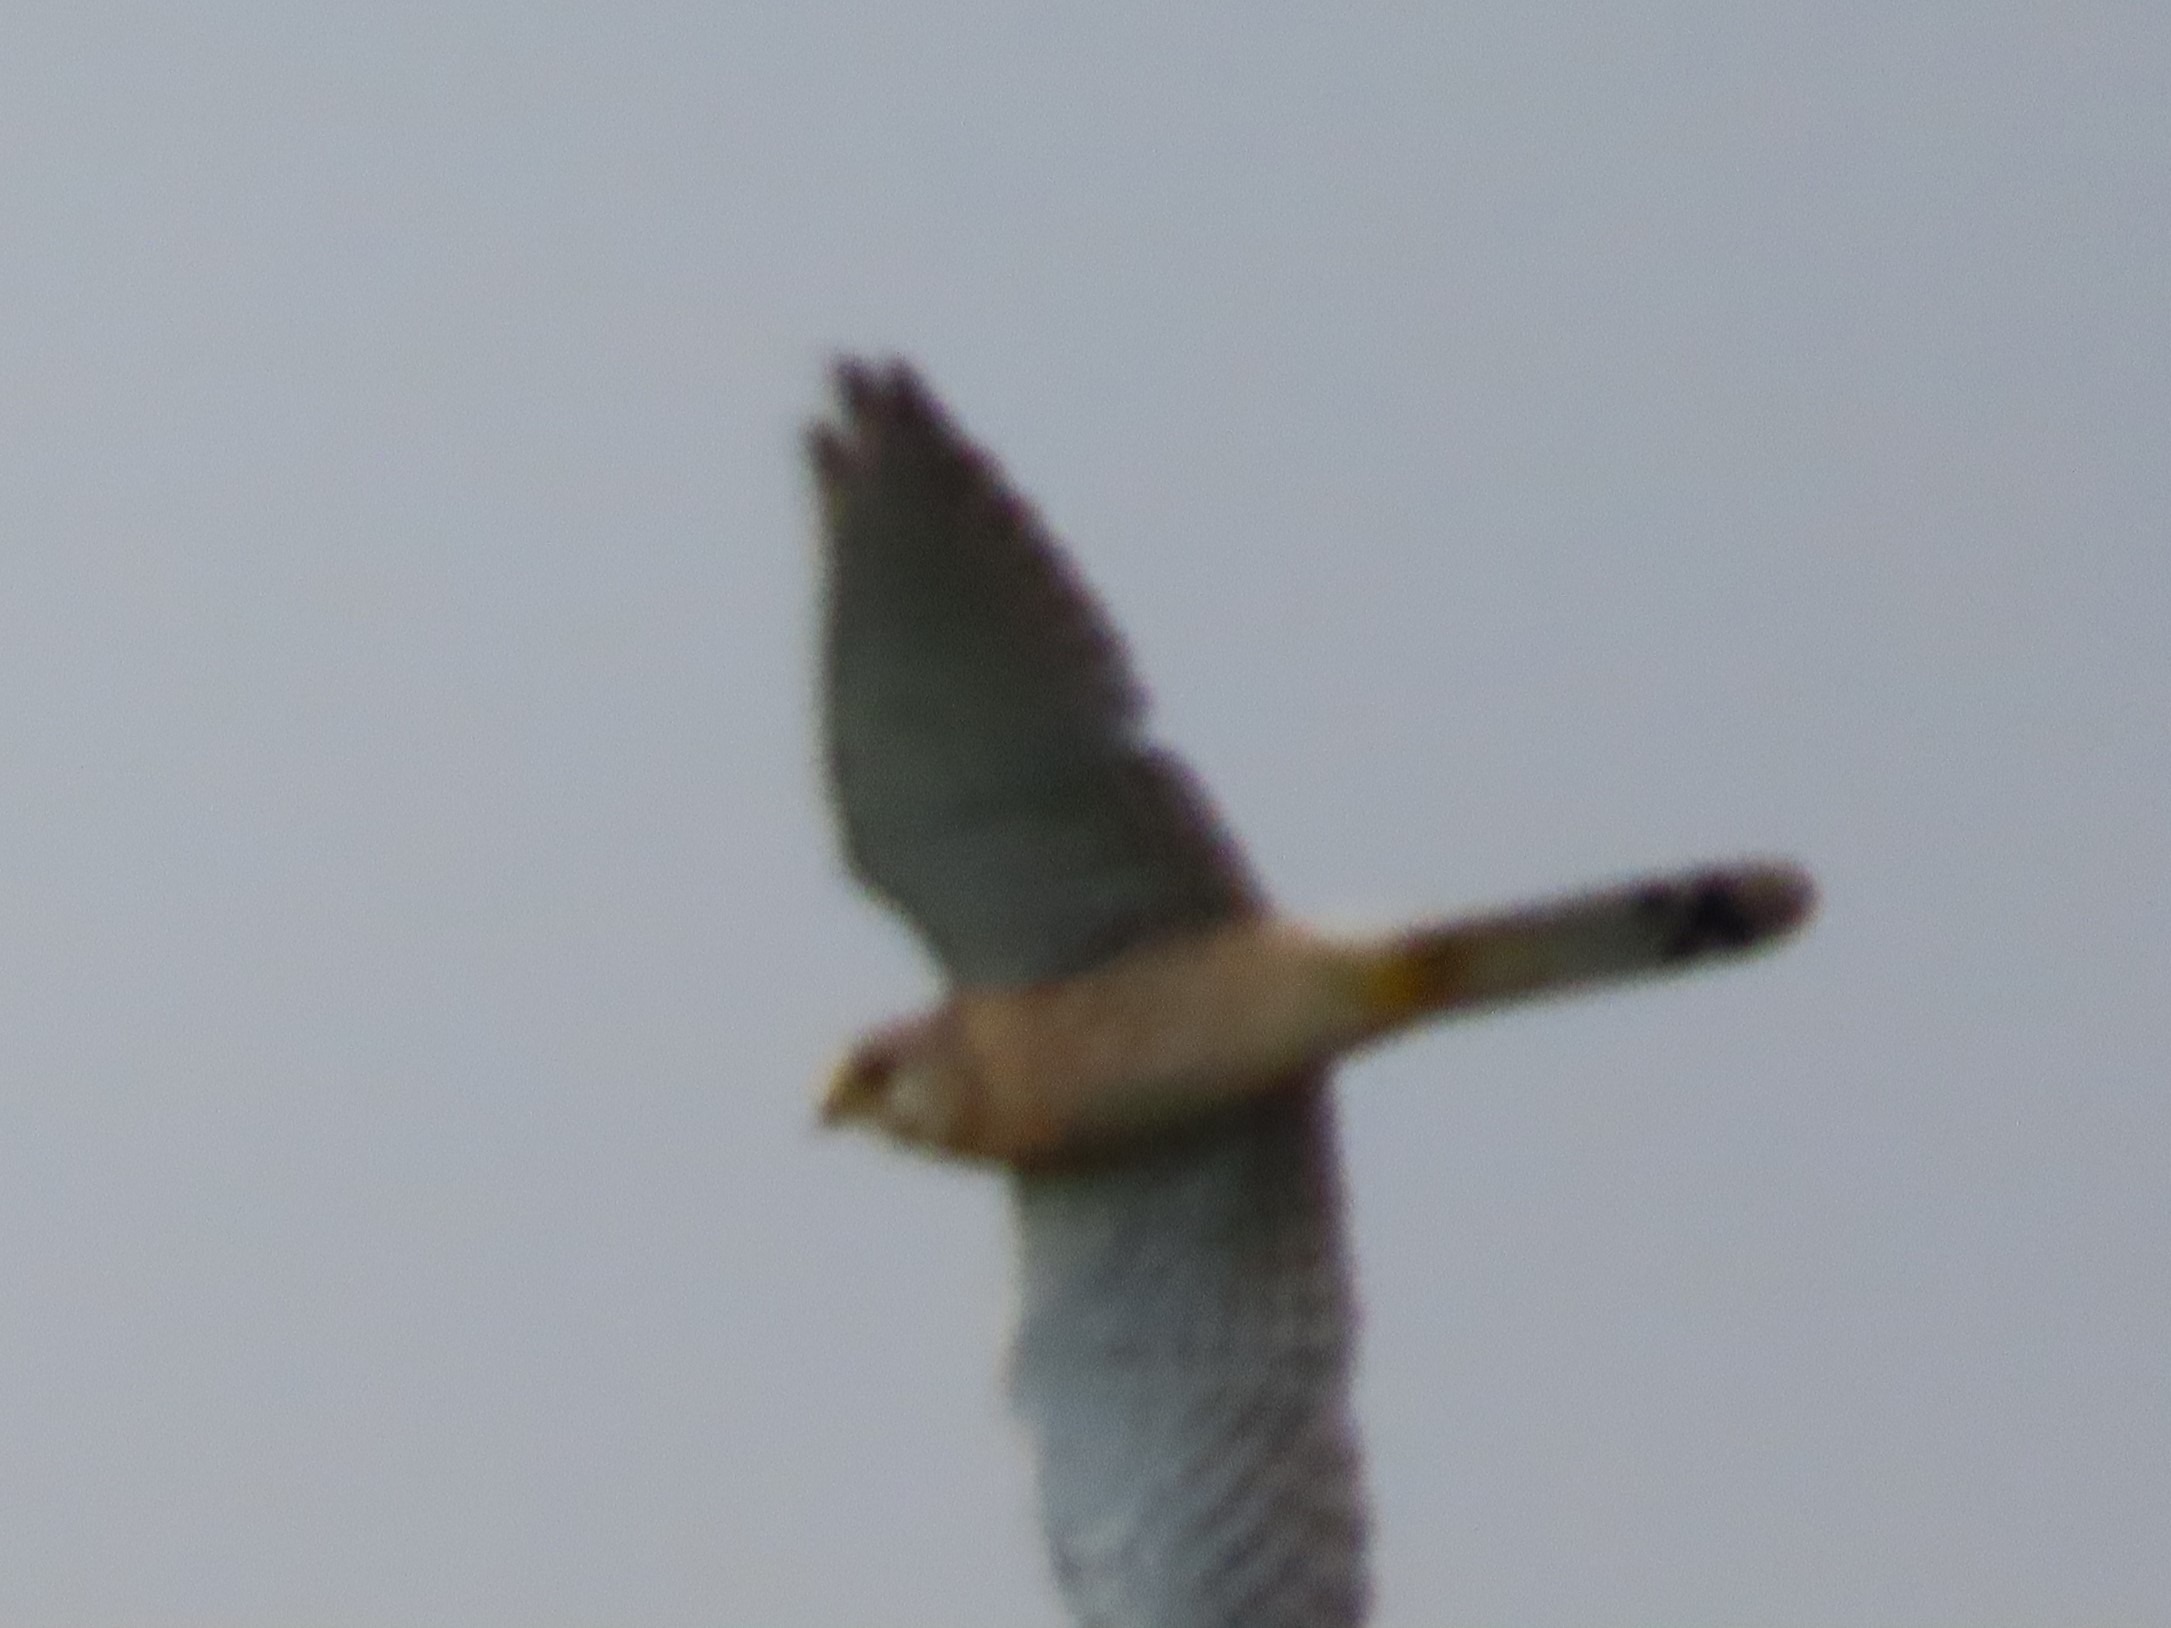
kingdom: Animalia
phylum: Chordata
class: Aves
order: Falconiformes
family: Falconidae
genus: Falco
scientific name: Falco tinnunculus
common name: Tårnfalk
